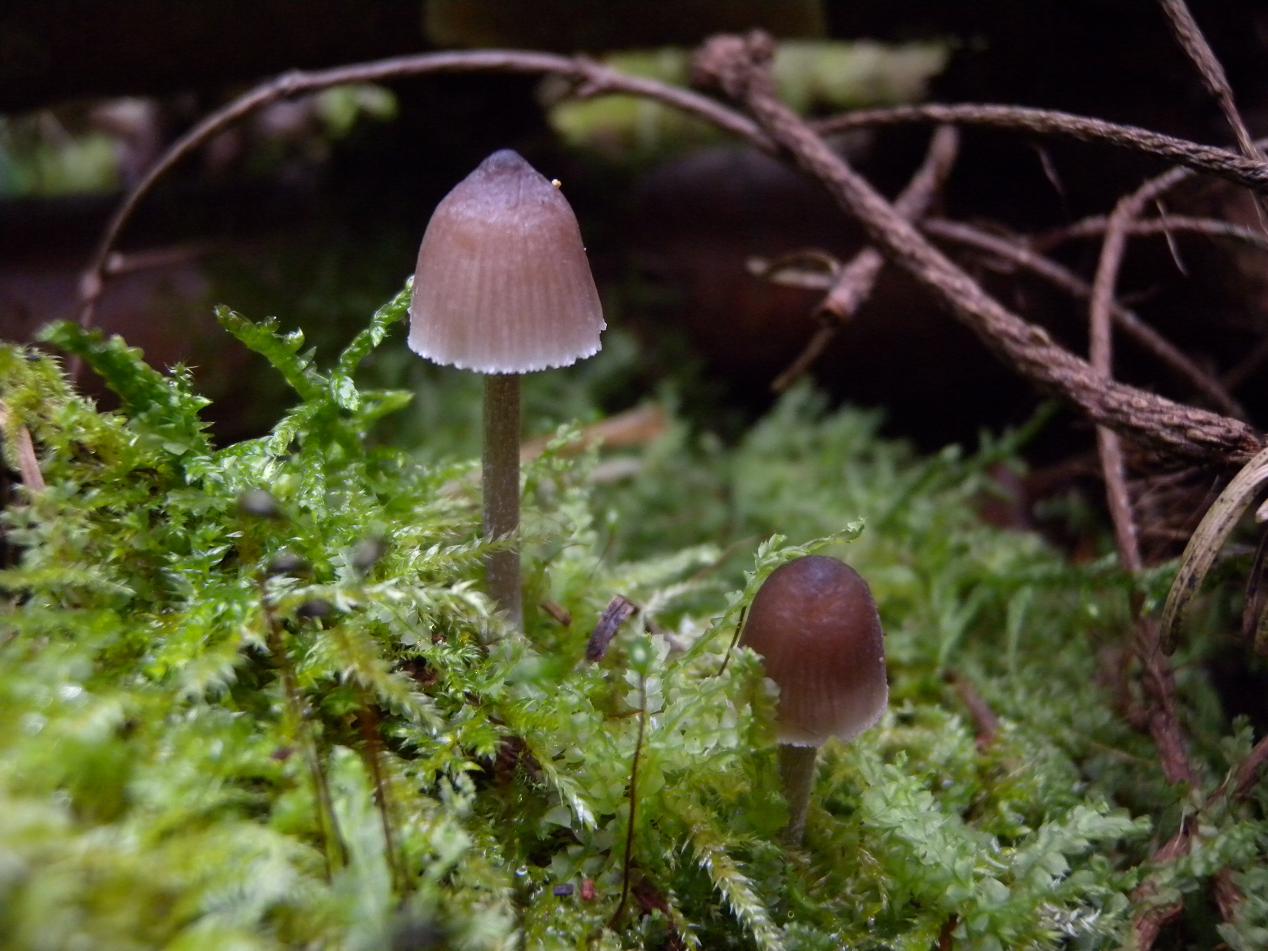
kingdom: Fungi
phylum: Basidiomycota
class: Agaricomycetes
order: Agaricales
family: Mycenaceae
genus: Mycena
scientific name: Mycena zephirus
